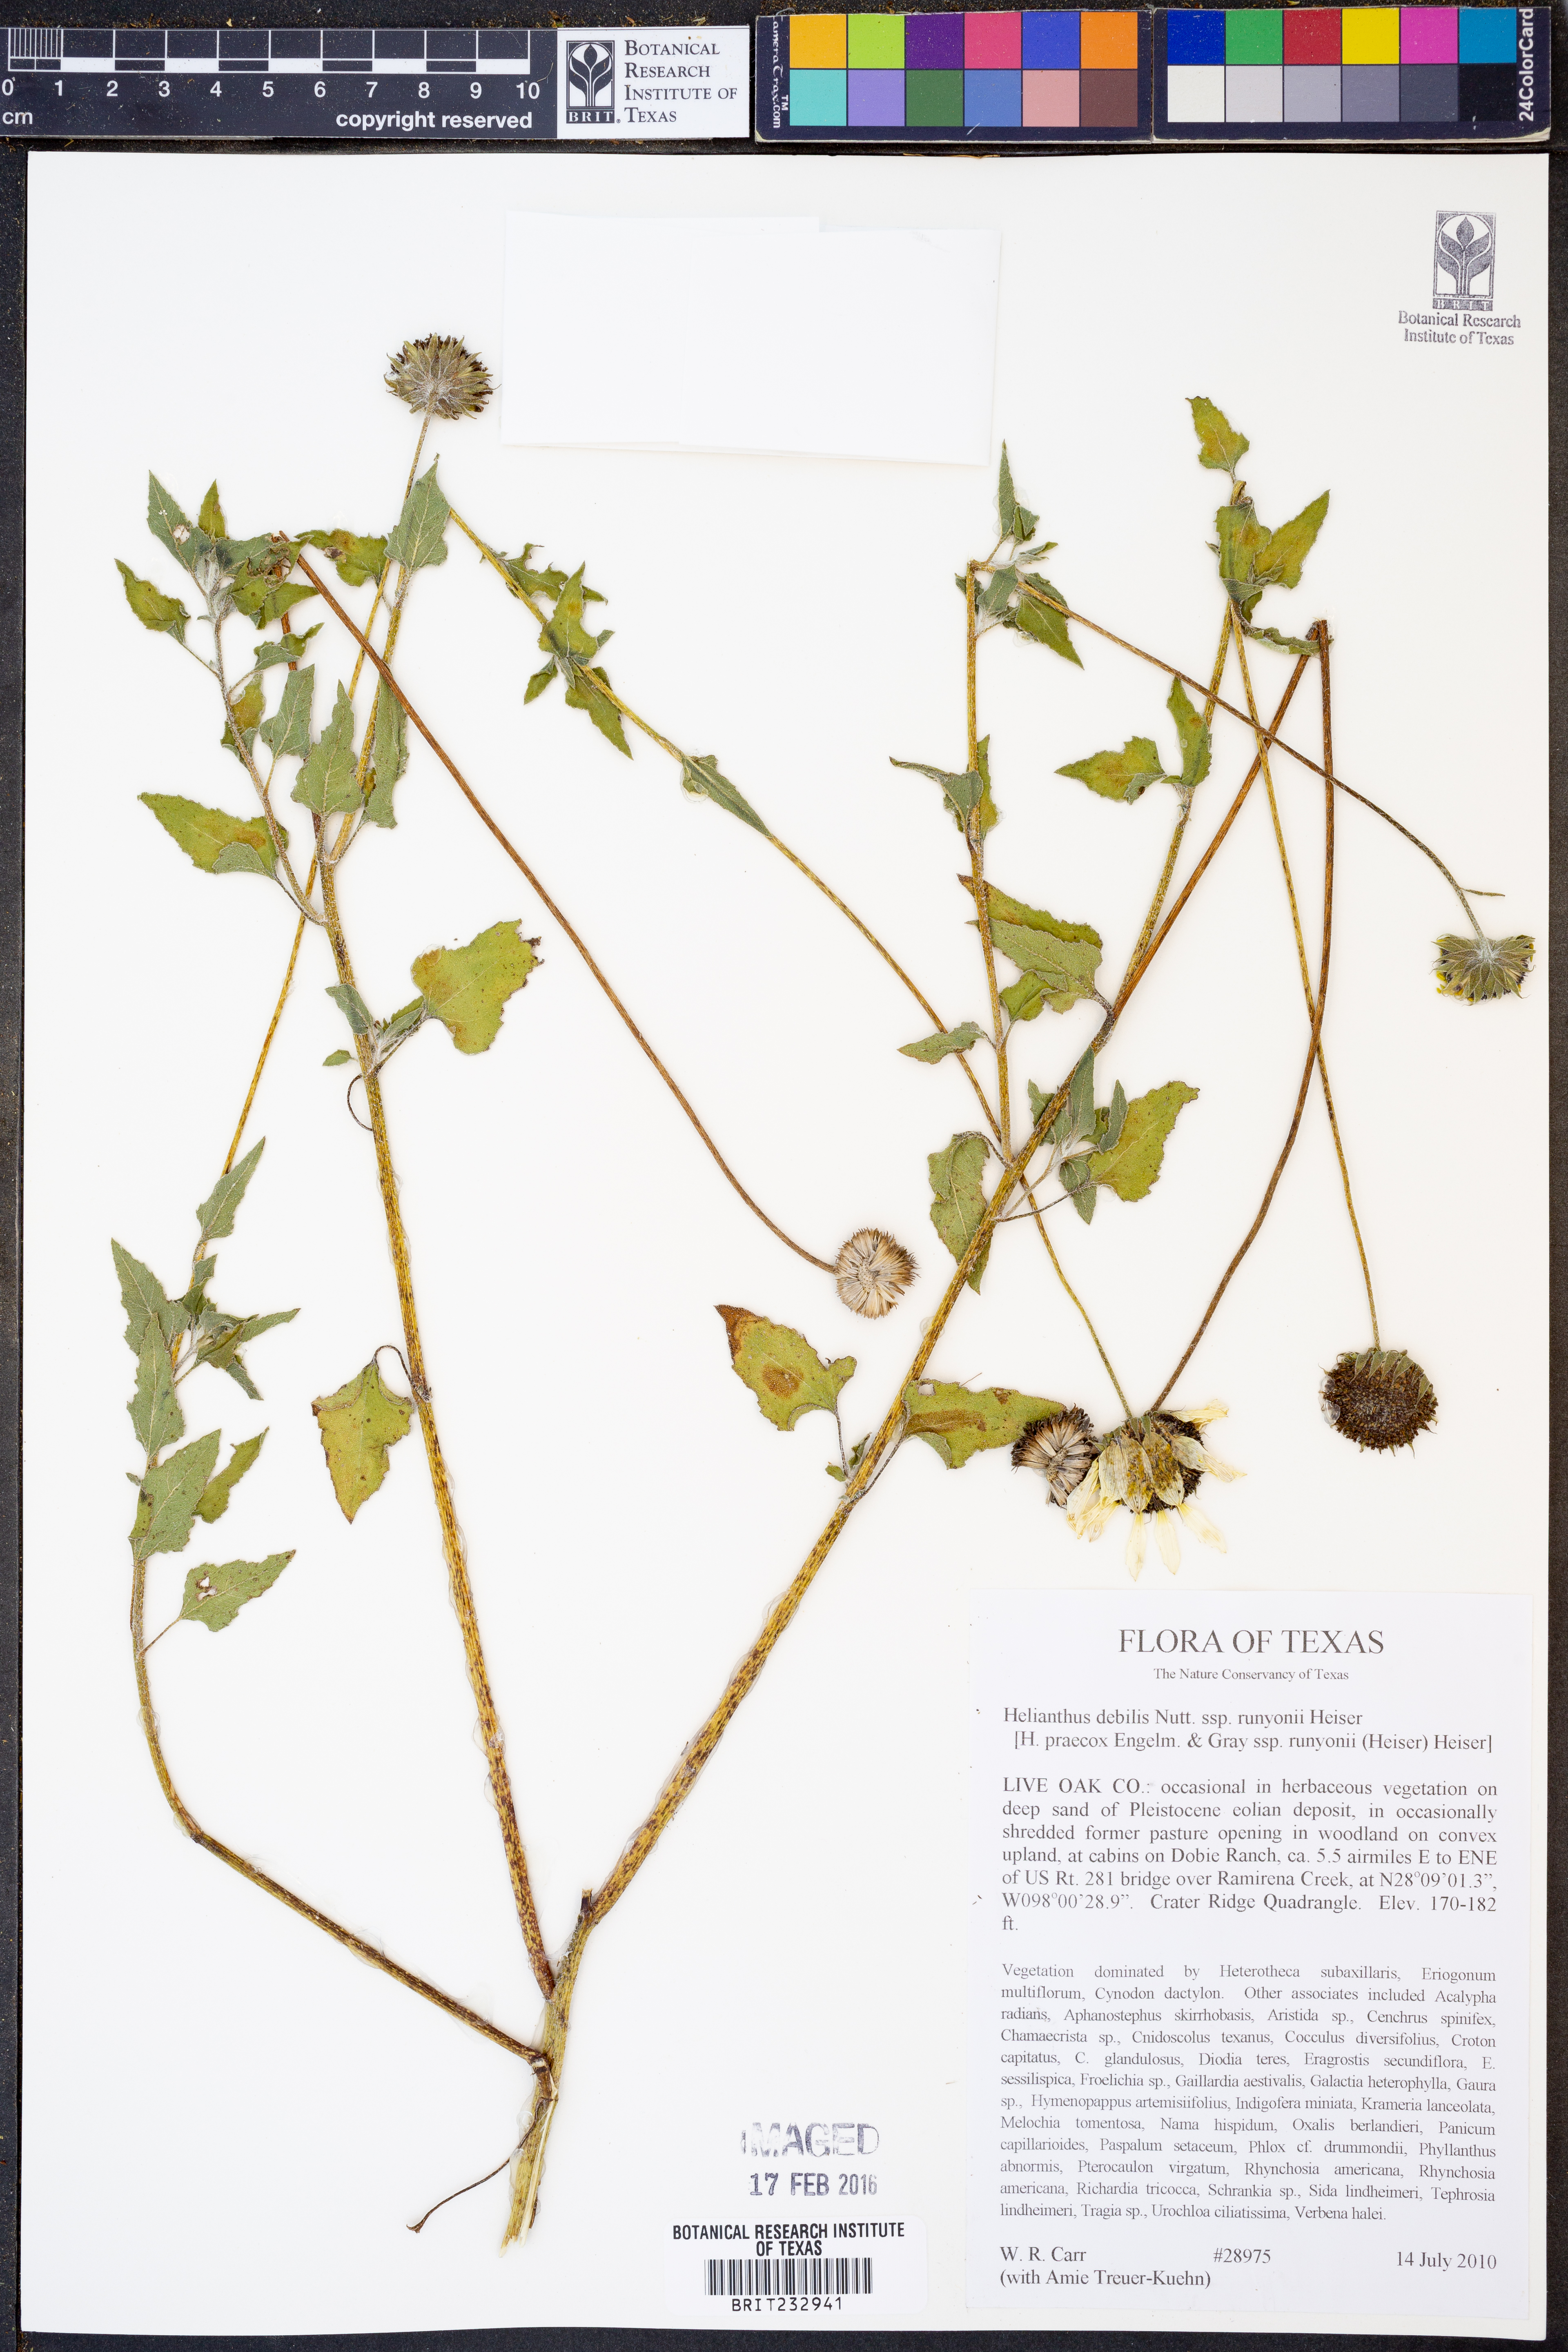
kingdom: Plantae
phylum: Tracheophyta
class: Magnoliopsida
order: Asterales
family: Asteraceae
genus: Helianthus
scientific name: Helianthus praecox
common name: Texas sunflower
